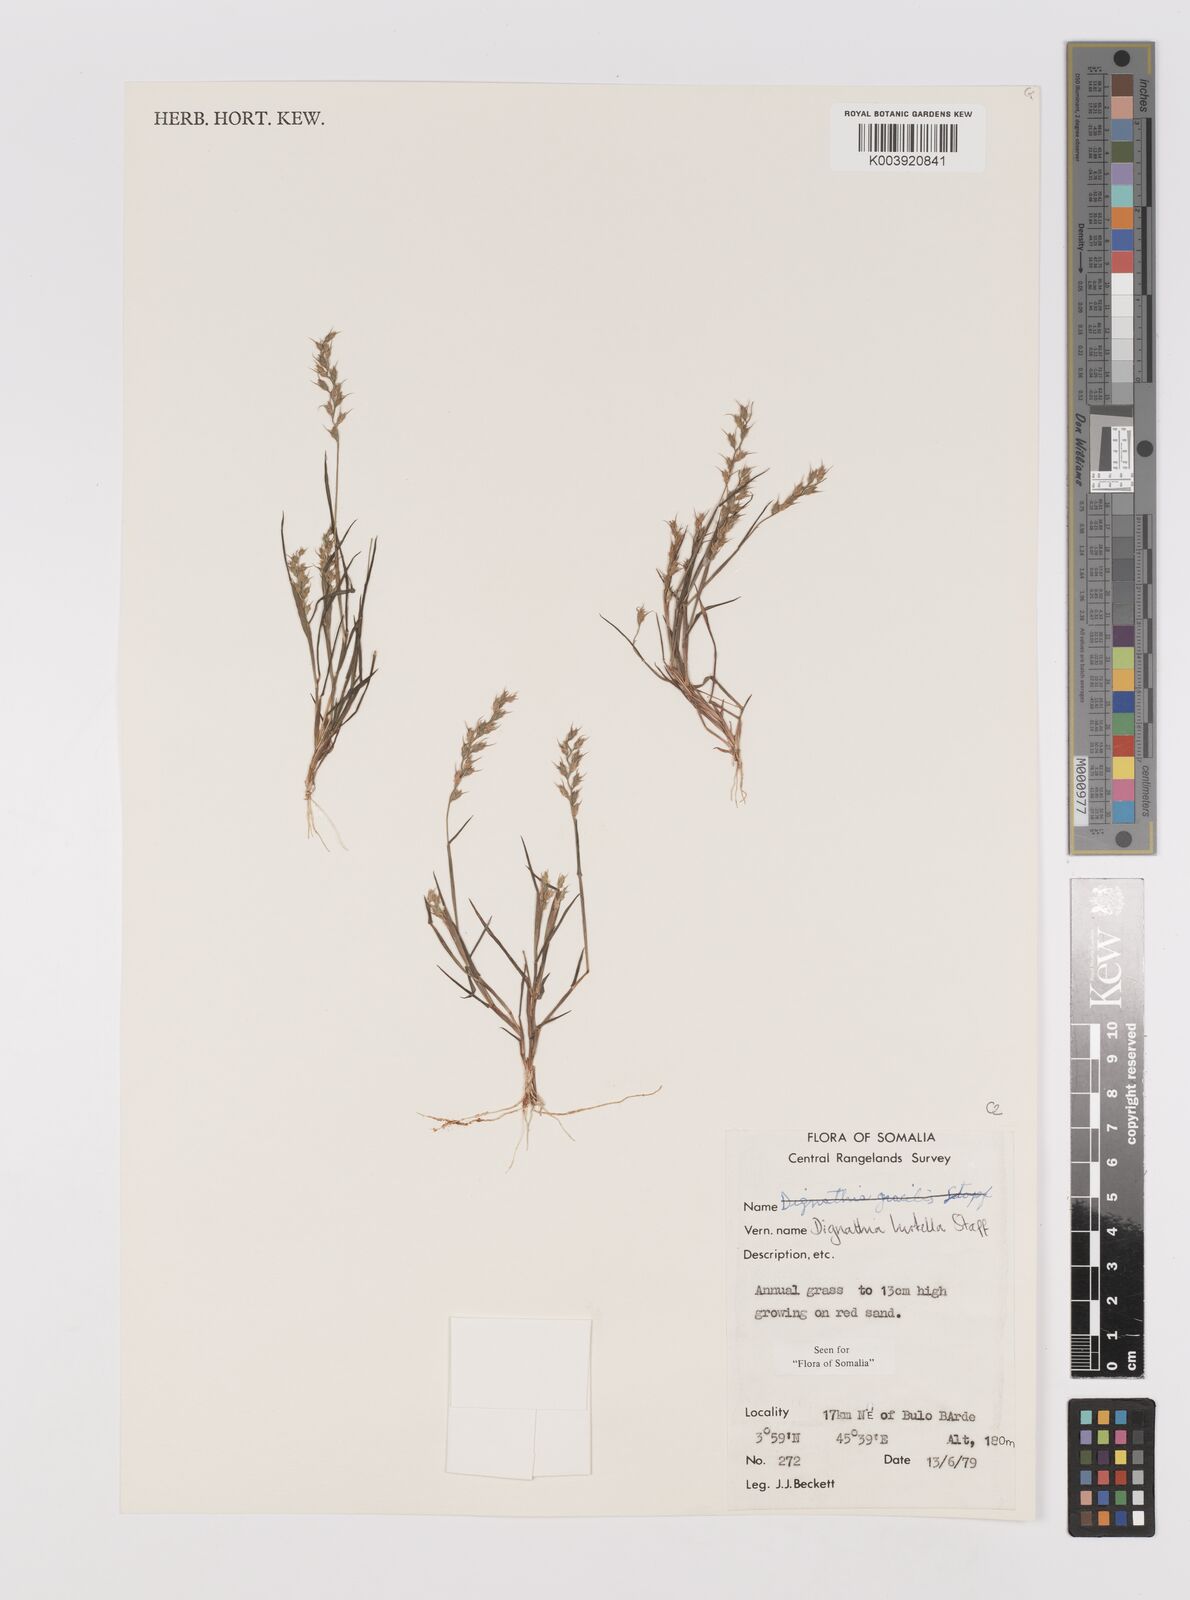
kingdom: Plantae
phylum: Tracheophyta
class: Liliopsida
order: Poales
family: Poaceae
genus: Dignathia
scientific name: Dignathia hirtella
